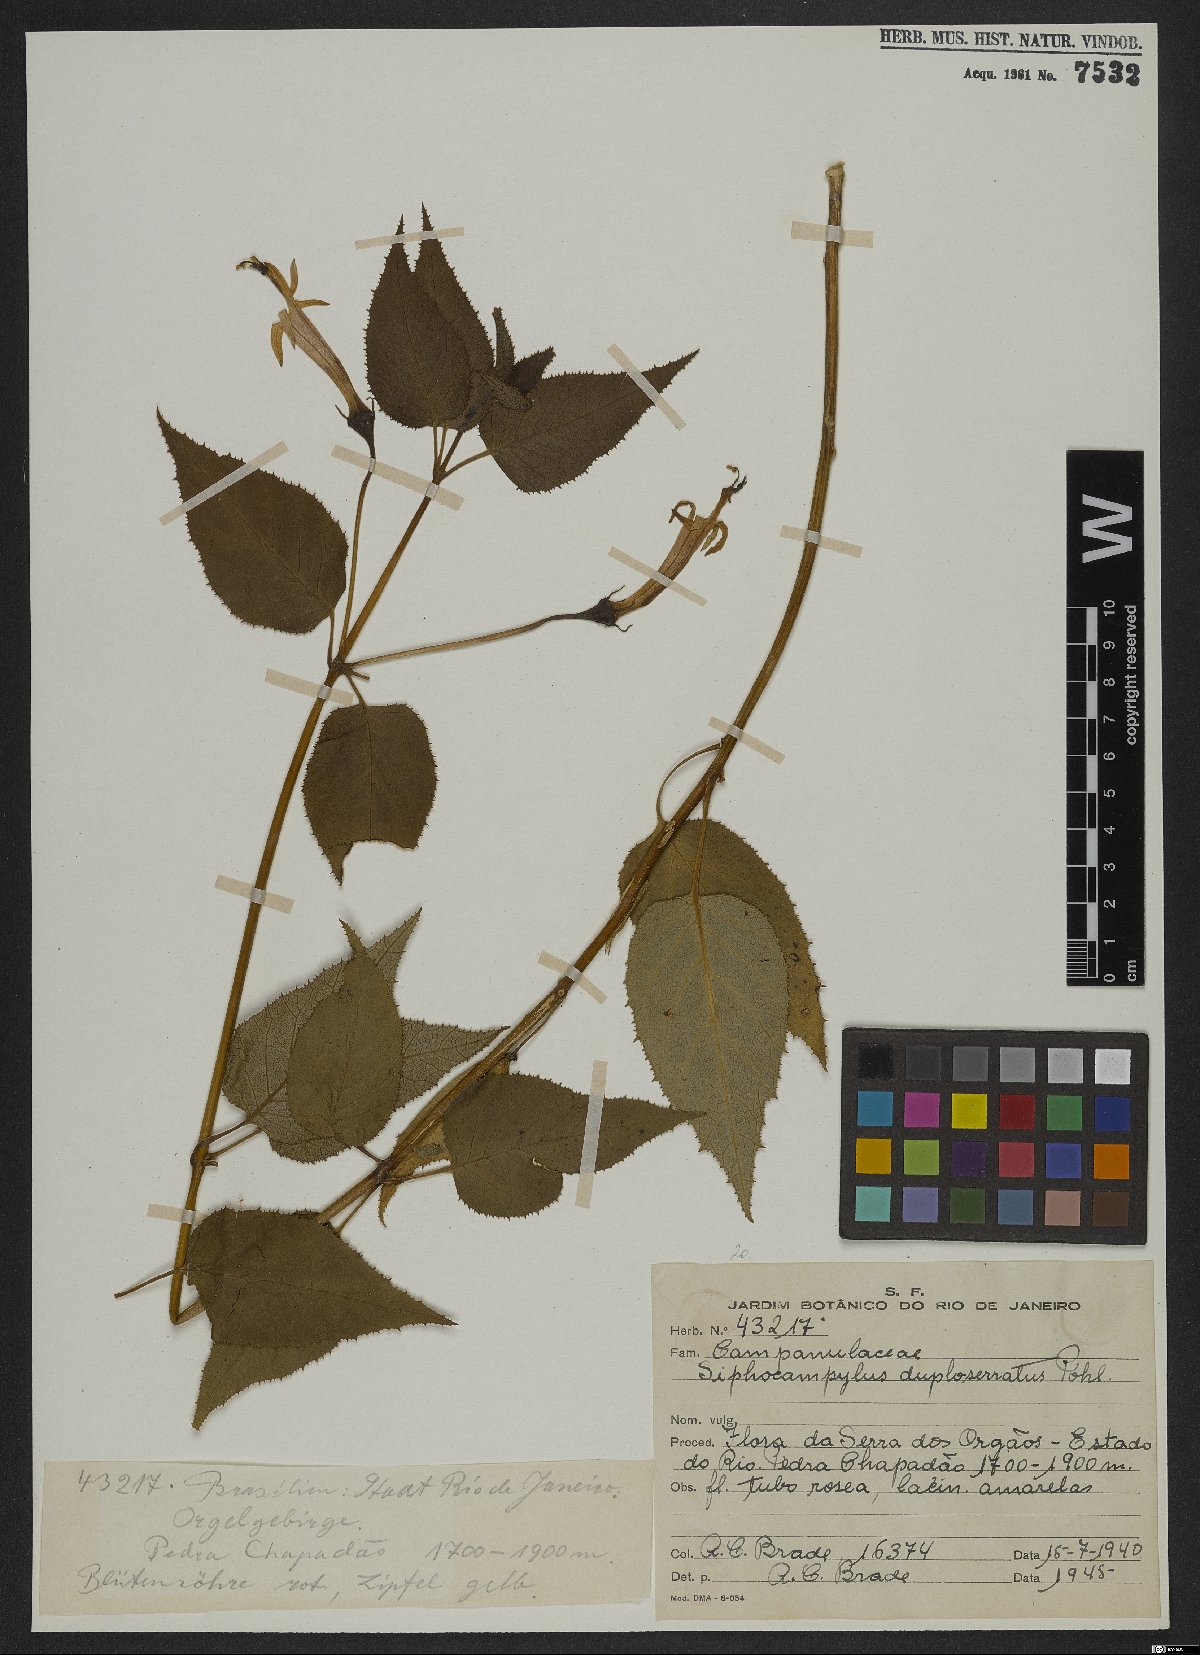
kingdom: Plantae
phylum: Tracheophyta
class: Magnoliopsida
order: Asterales
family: Campanulaceae
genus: Siphocampylus
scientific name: Siphocampylus duploserratus
